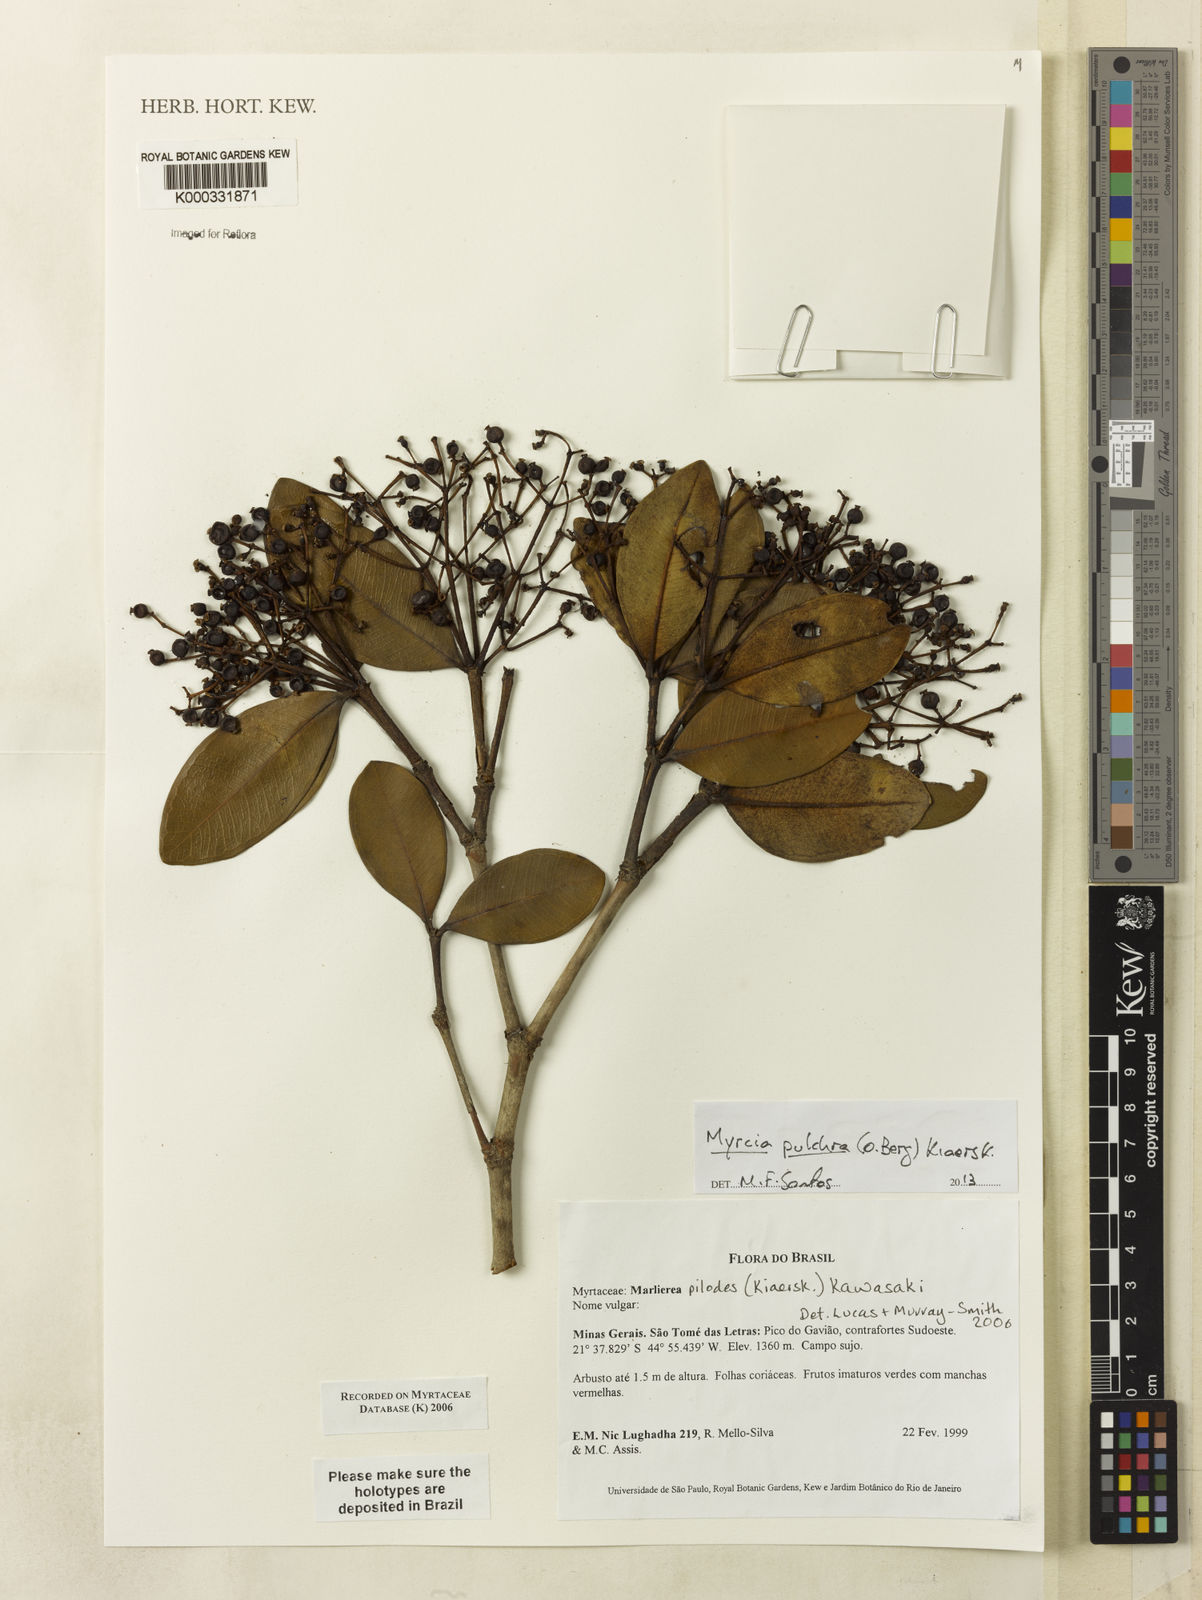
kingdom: Plantae
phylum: Tracheophyta
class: Magnoliopsida
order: Myrtales
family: Myrtaceae
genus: Myrcia
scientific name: Myrcia mutabilis
